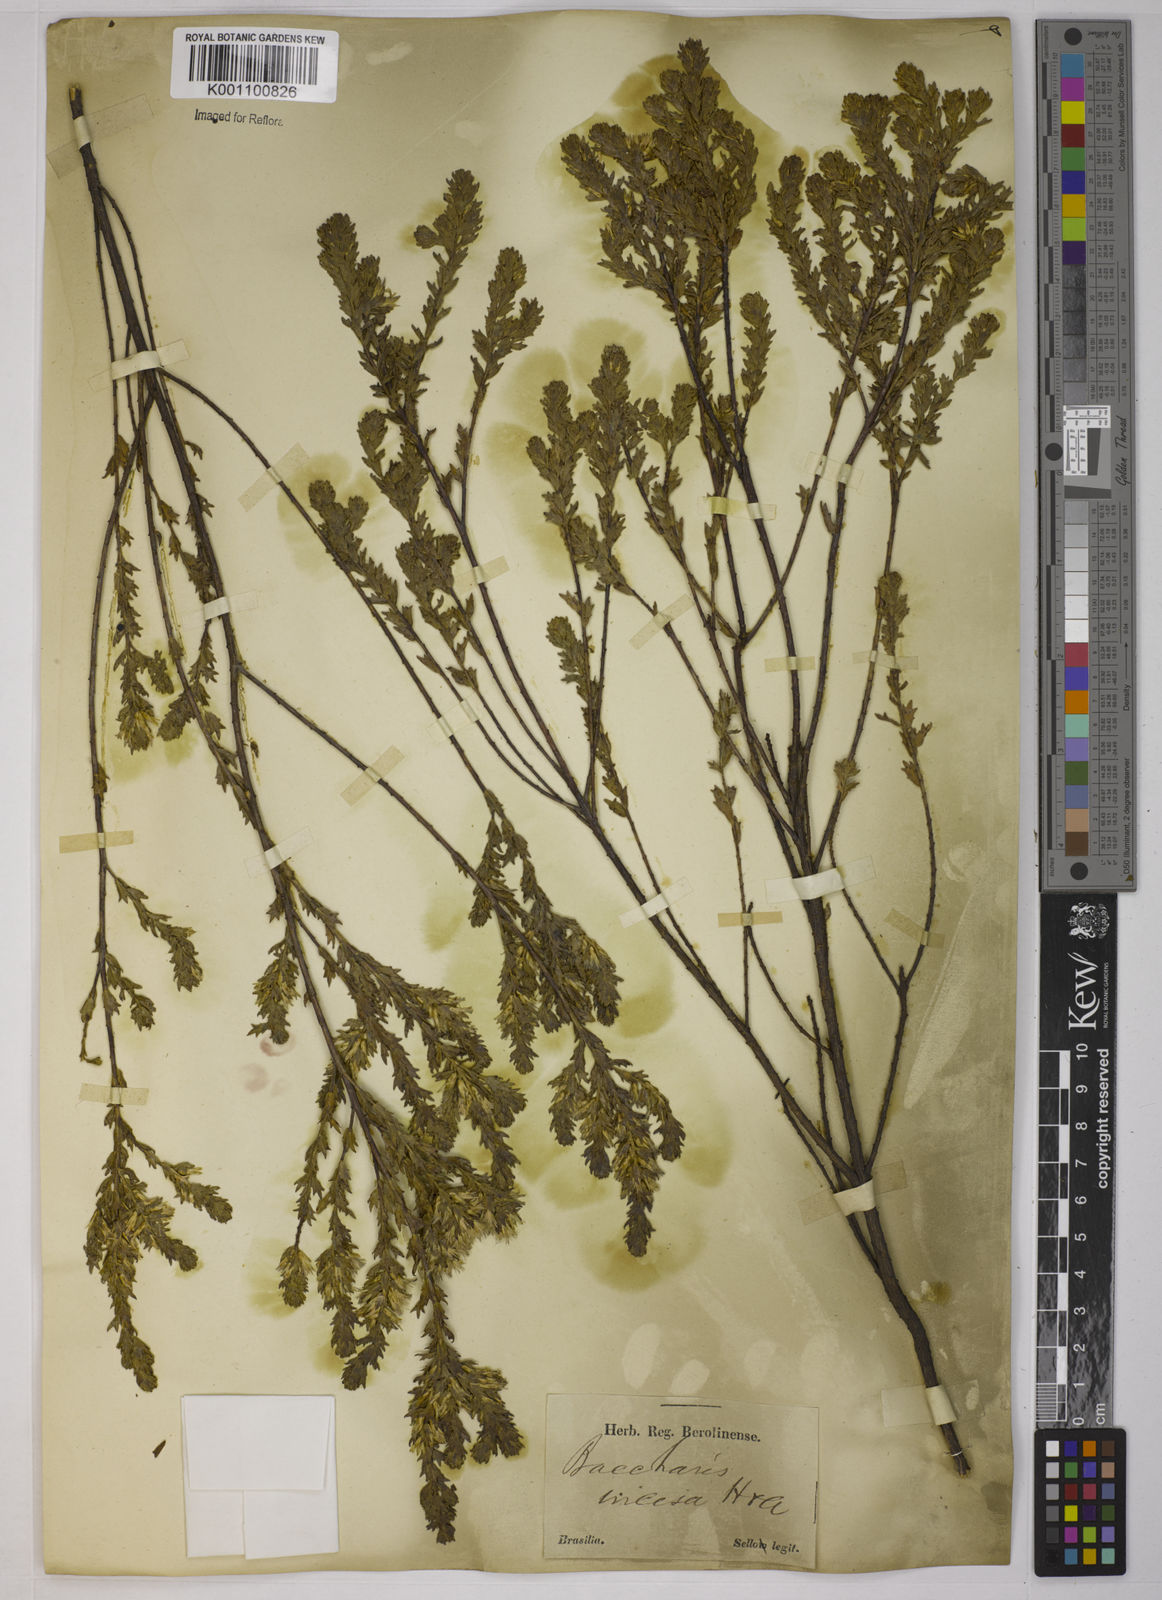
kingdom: Plantae
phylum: Tracheophyta
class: Magnoliopsida
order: Asterales
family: Asteraceae
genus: Baccharis
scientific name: Baccharis incisa
